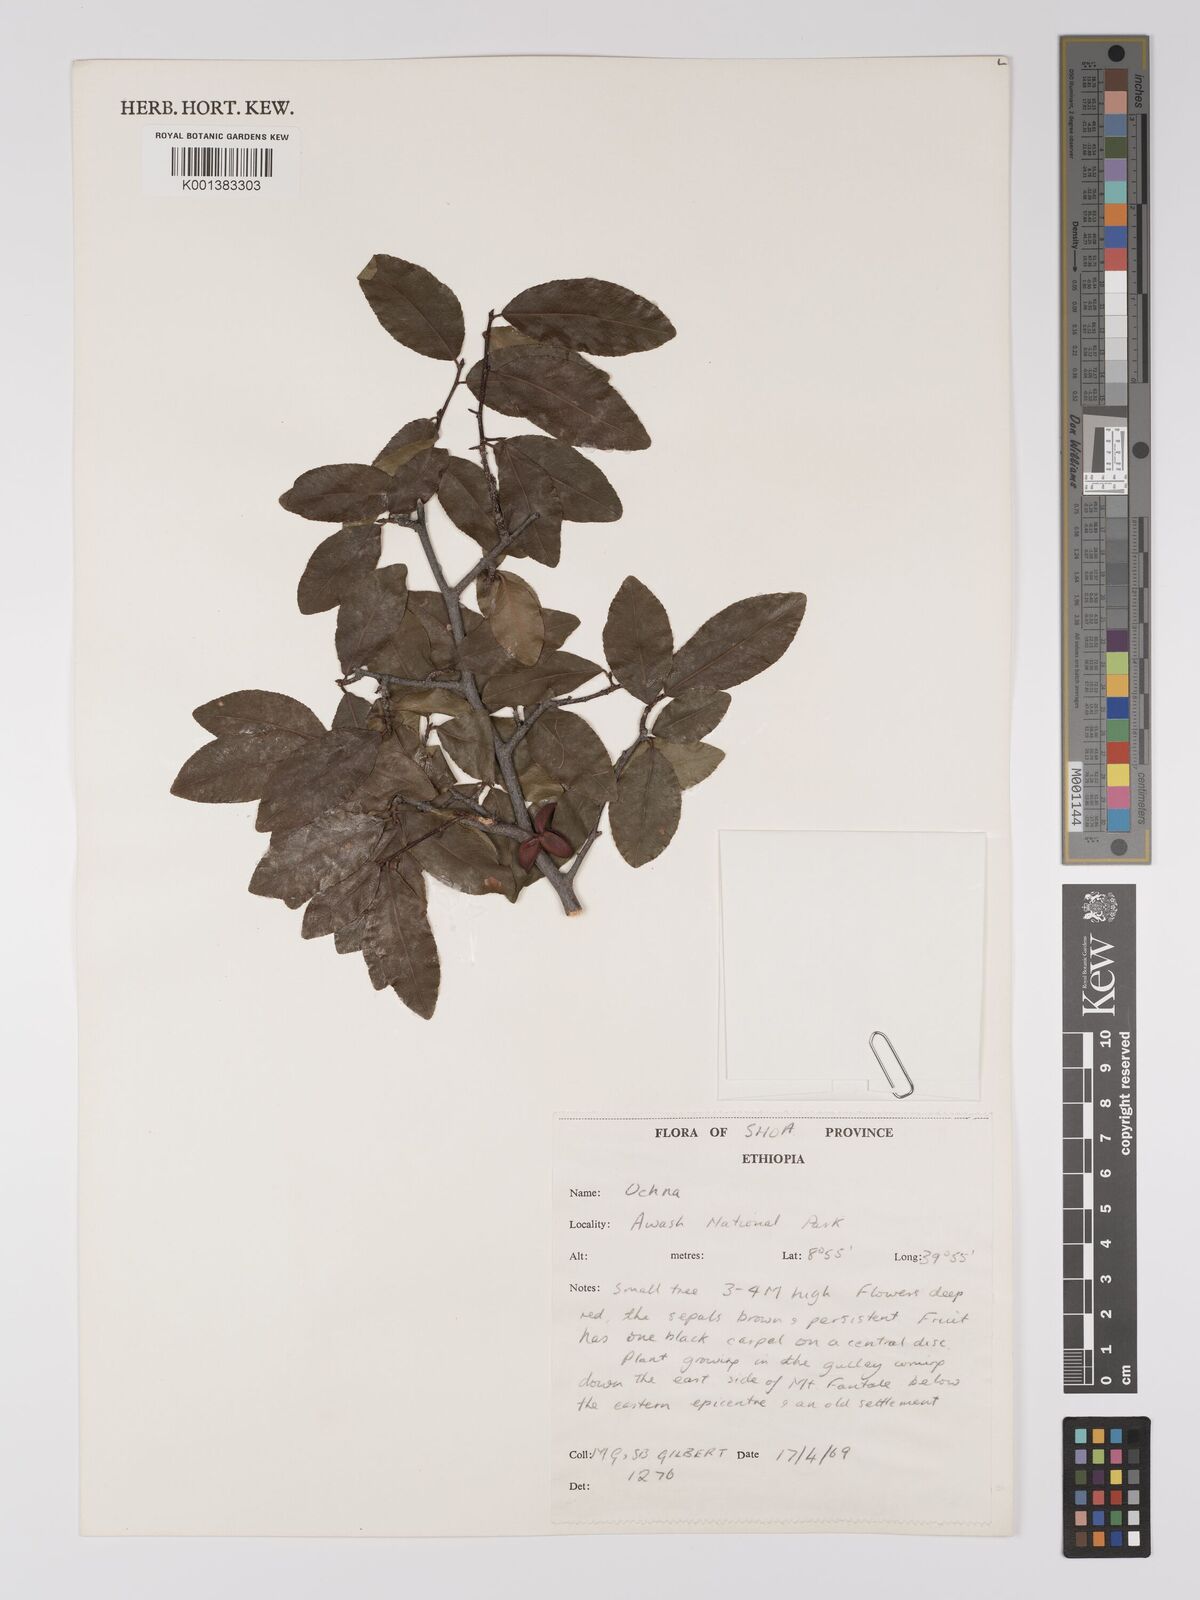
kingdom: Plantae
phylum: Tracheophyta
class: Magnoliopsida
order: Malpighiales
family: Ochnaceae
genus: Ochna
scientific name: Ochna
